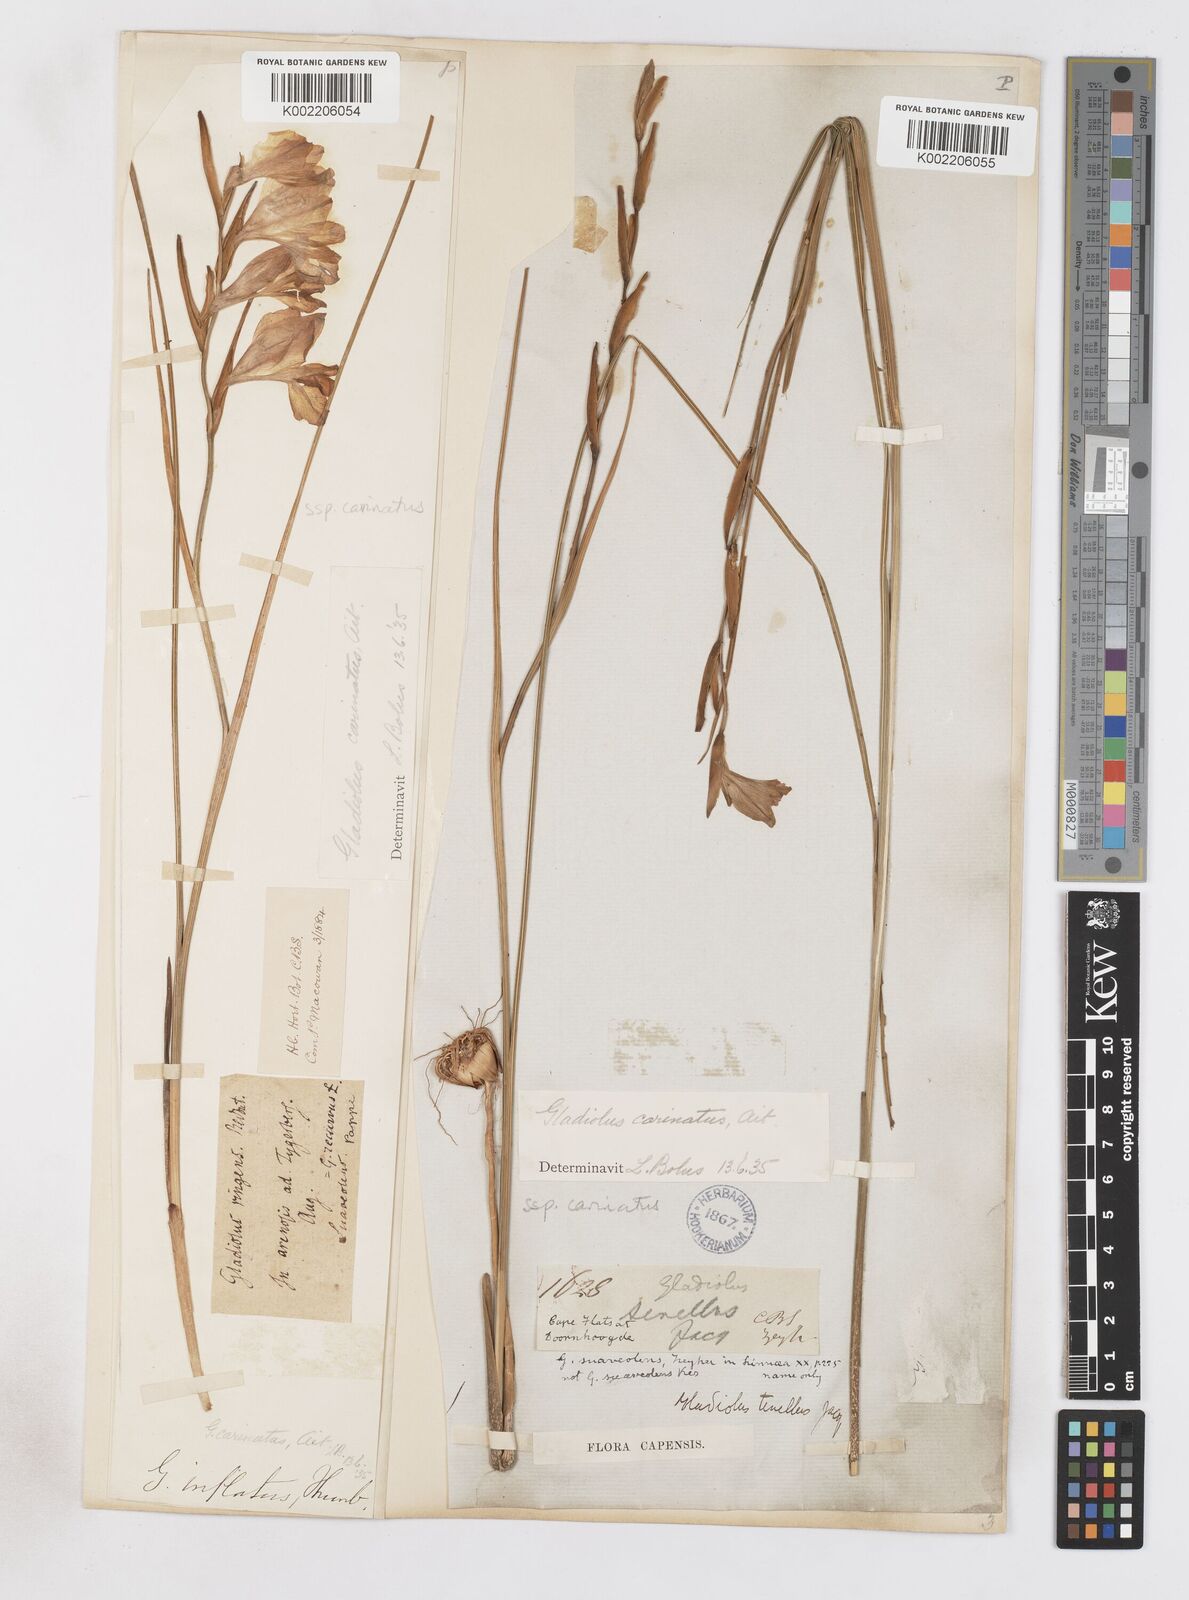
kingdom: Plantae
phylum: Tracheophyta
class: Liliopsida
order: Asparagales
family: Iridaceae
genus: Gladiolus
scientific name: Gladiolus carinatus
